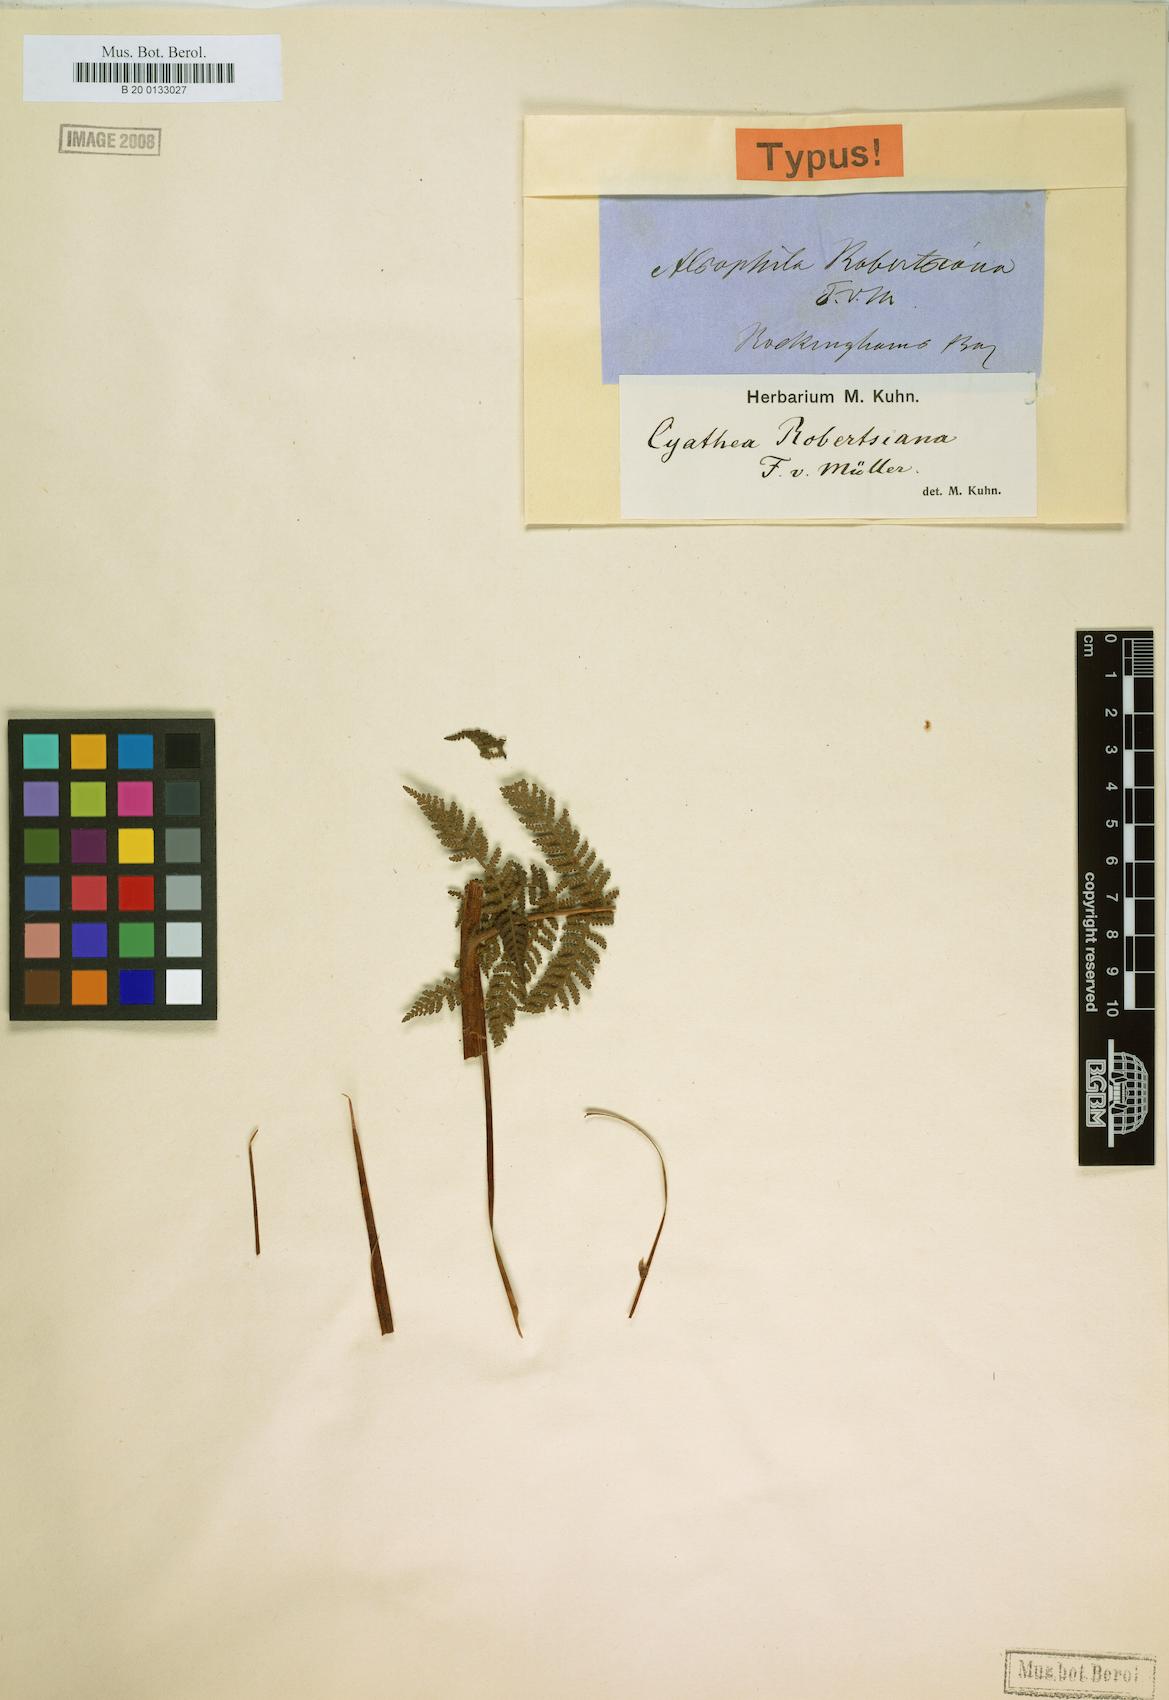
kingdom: Plantae
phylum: Tracheophyta
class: Polypodiopsida
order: Cyatheales
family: Cyatheaceae
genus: Cyathea
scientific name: Cyathea robertsiana
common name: Lacy tree fern
